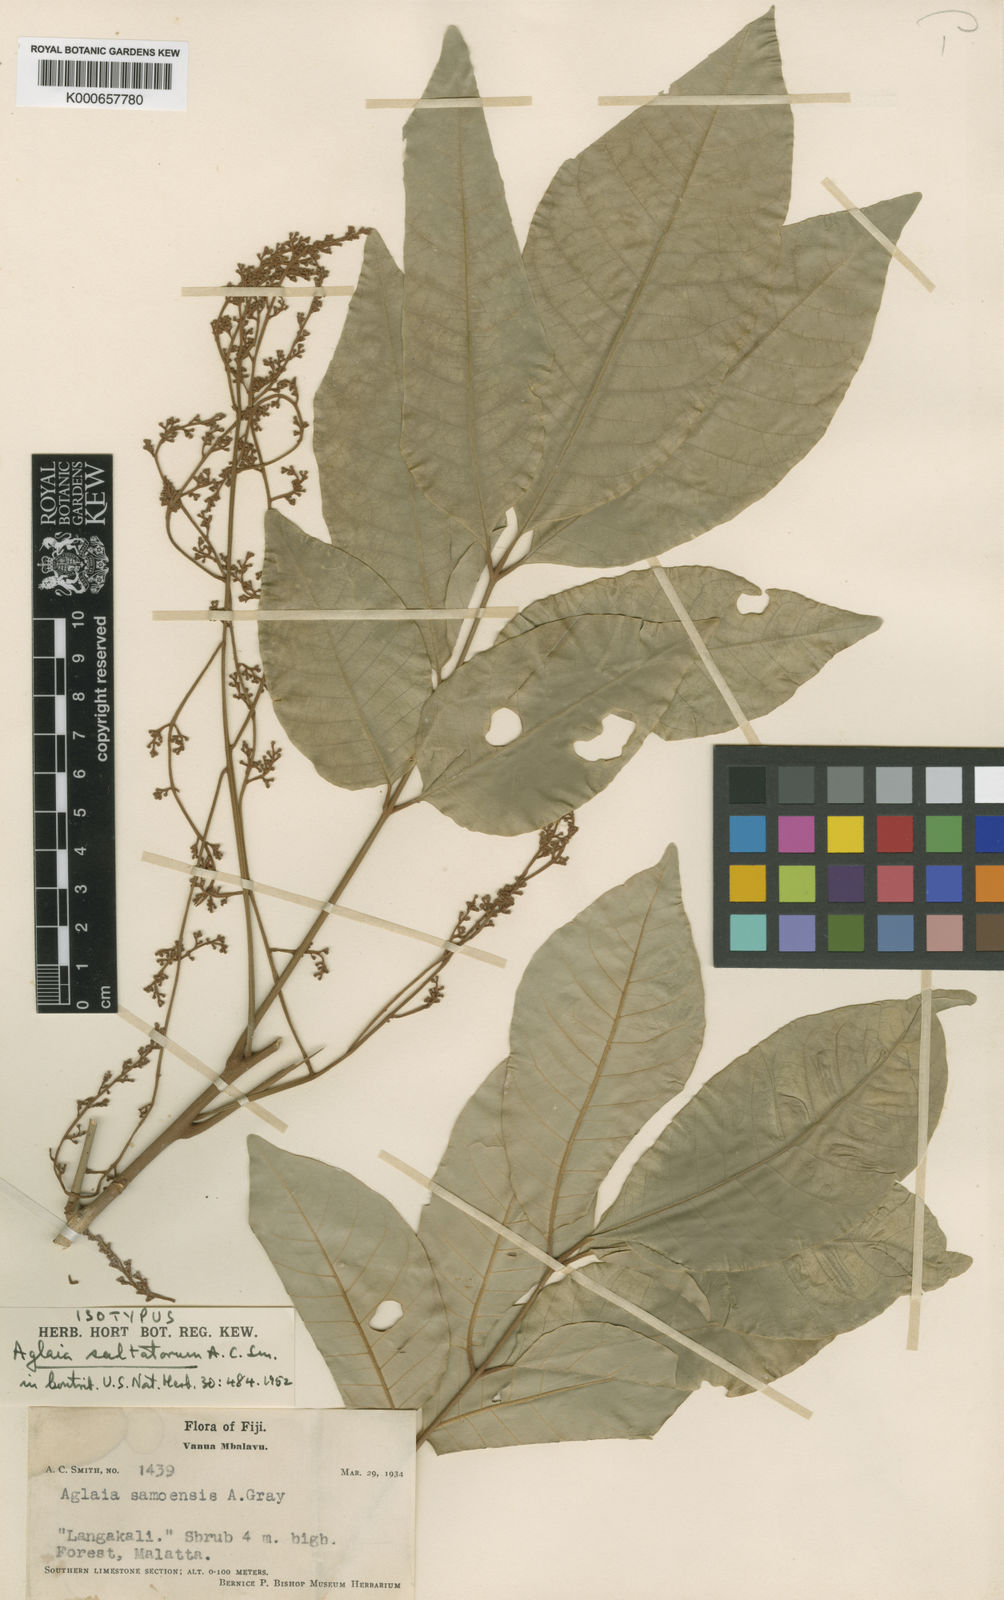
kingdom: Plantae
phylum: Tracheophyta
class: Magnoliopsida
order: Sapindales
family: Meliaceae
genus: Aglaia
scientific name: Aglaia saltatorum
